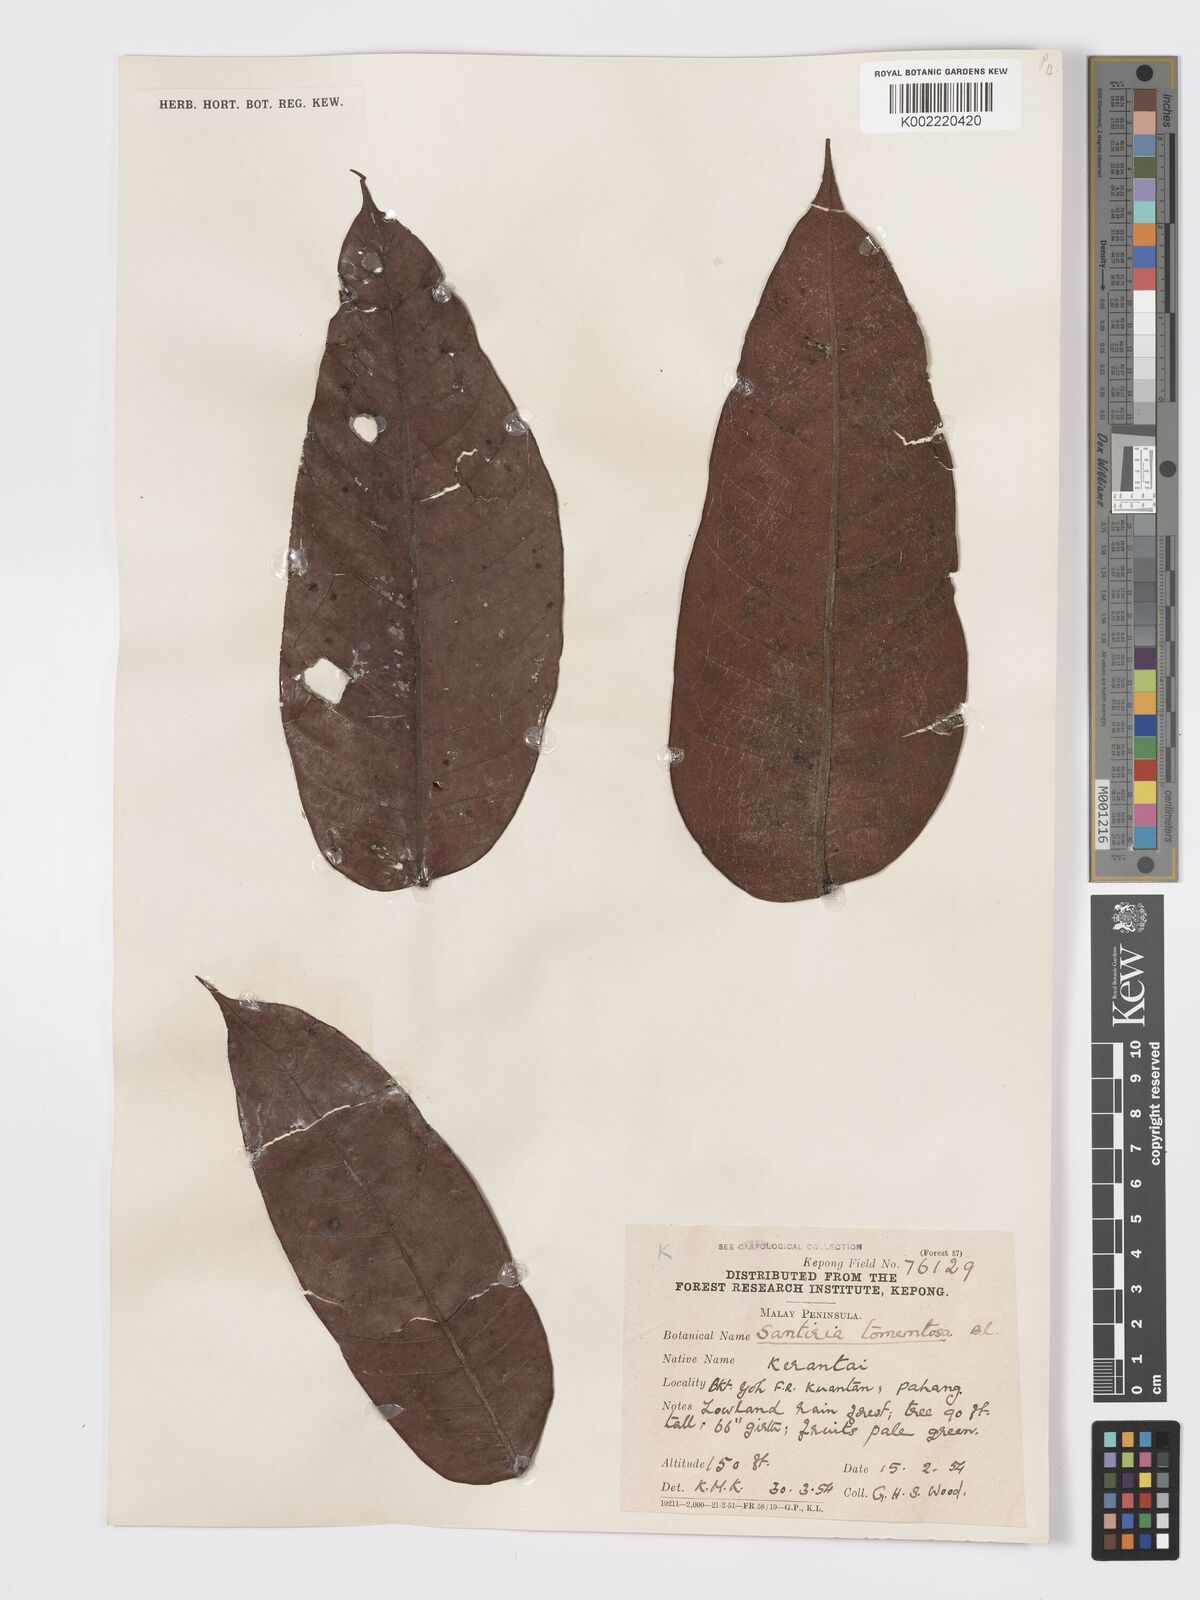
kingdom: Plantae
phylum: Tracheophyta
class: Magnoliopsida
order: Sapindales
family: Burseraceae
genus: Santiria
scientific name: Santiria tomentosa
